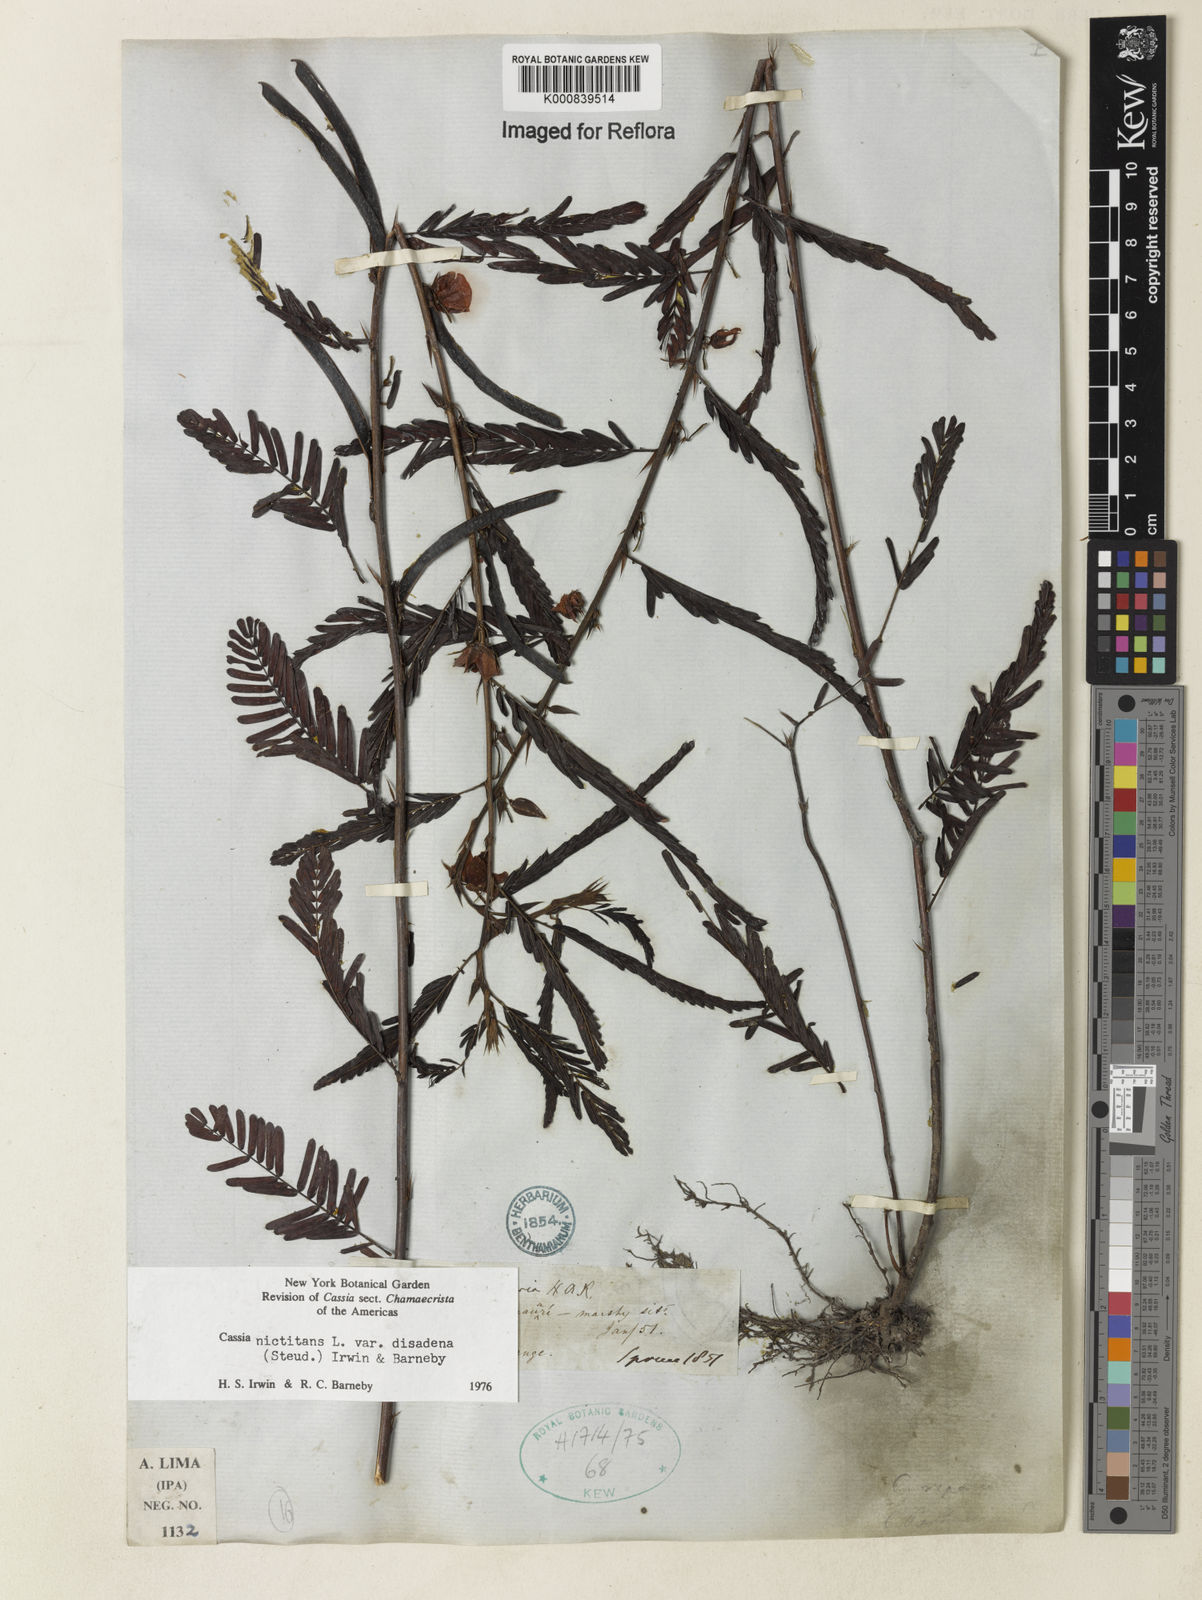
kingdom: Plantae
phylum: Tracheophyta
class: Magnoliopsida
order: Fabales
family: Fabaceae
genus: Chamaecrista
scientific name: Chamaecrista nictitans
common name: Sensitive cassia
